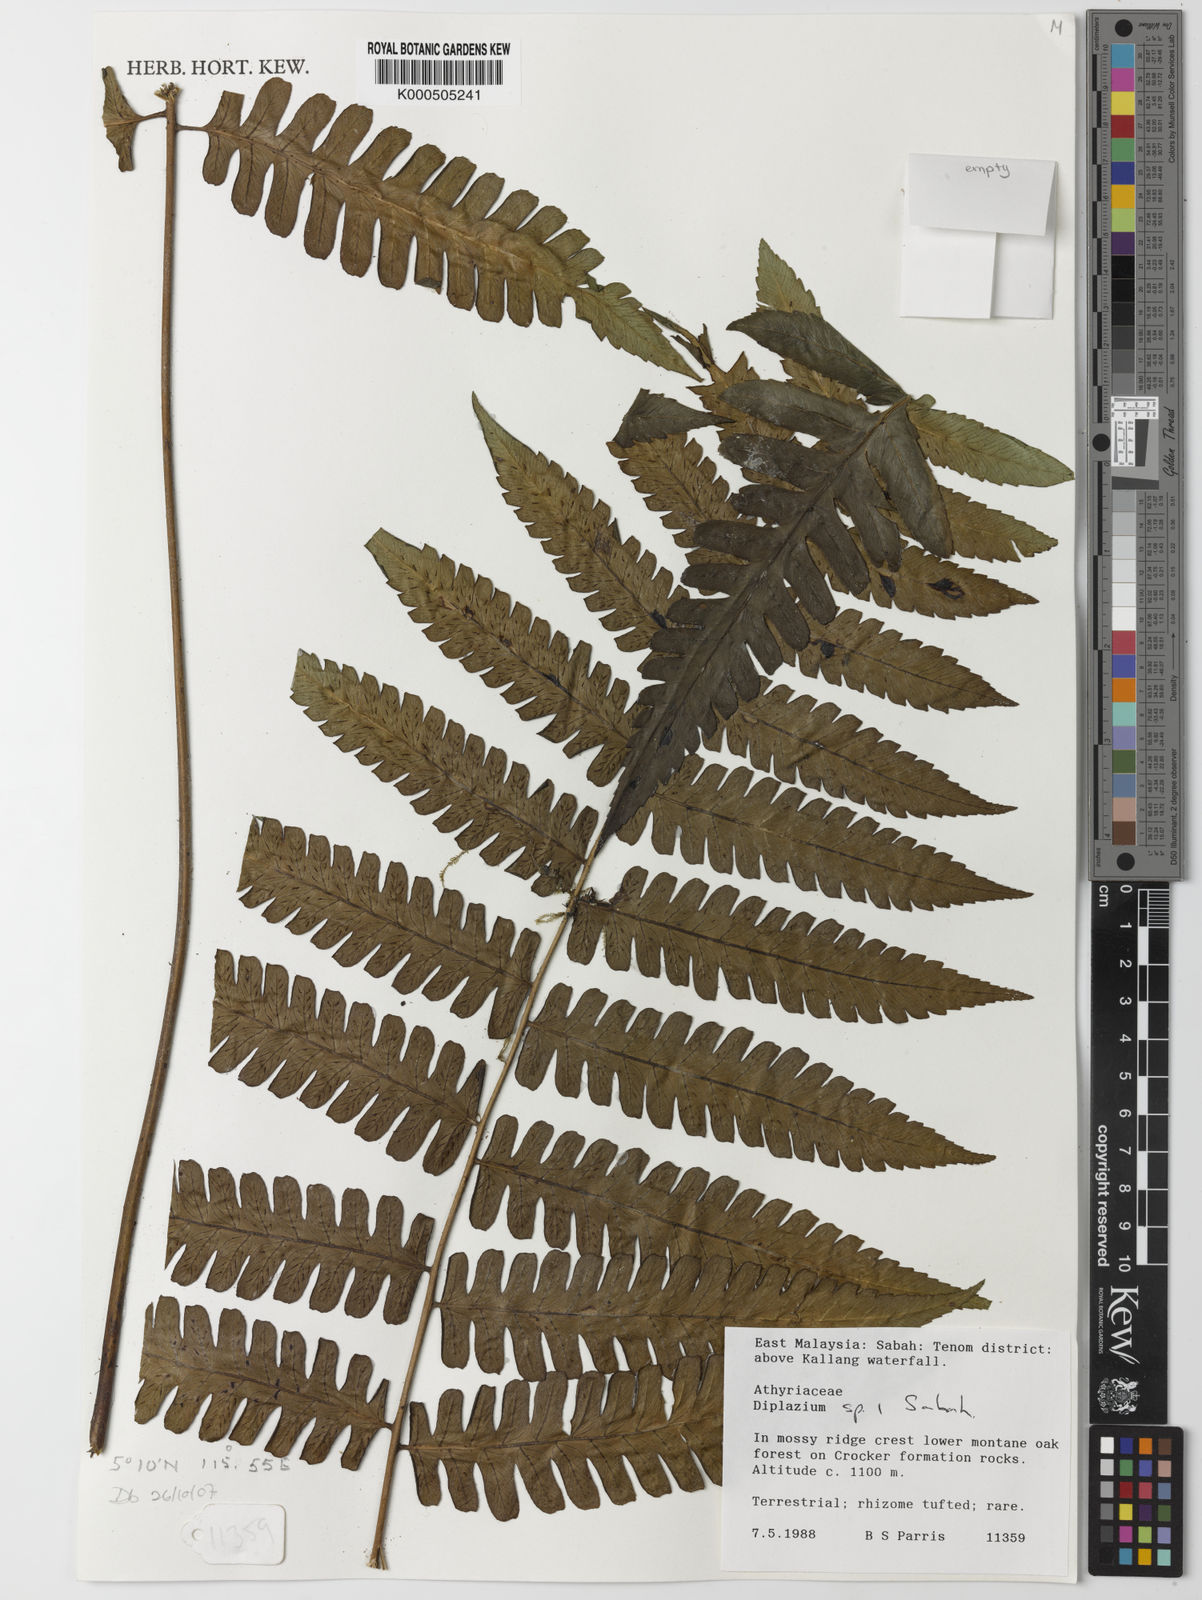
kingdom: Plantae
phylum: Tracheophyta
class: Polypodiopsida
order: Polypodiales
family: Athyriaceae
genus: Diplazium
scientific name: Diplazium
